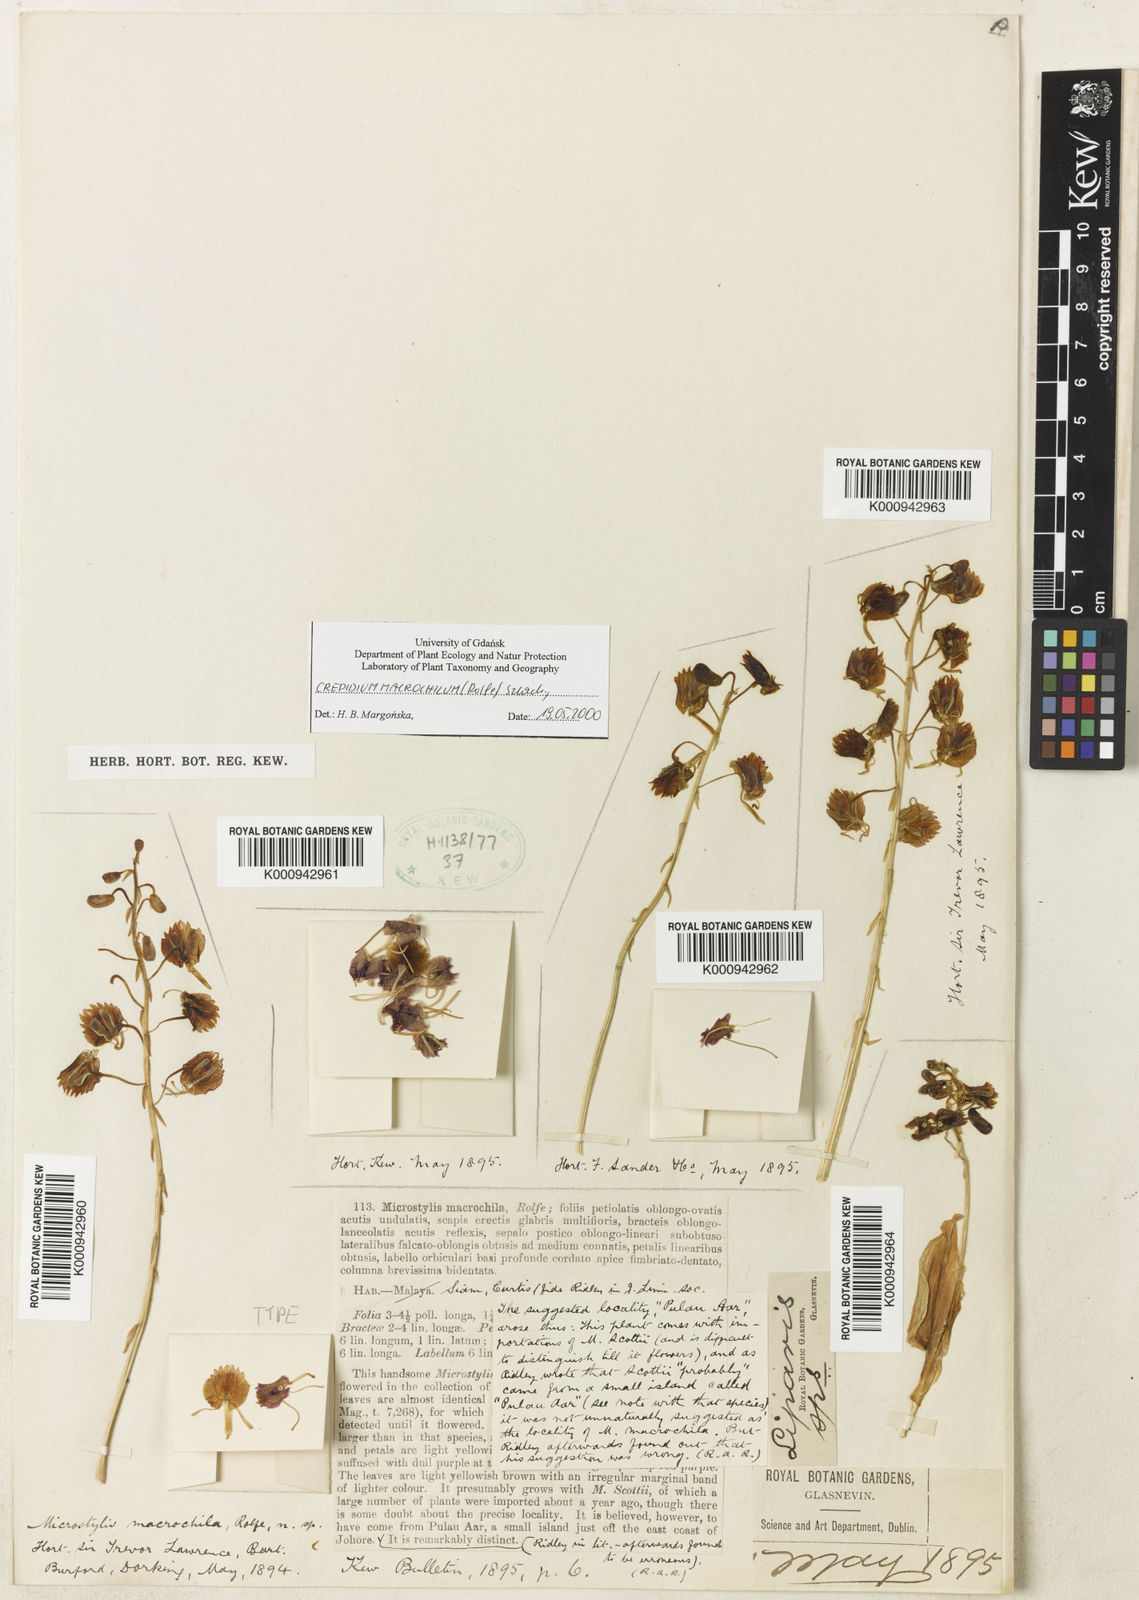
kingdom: Plantae
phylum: Tracheophyta
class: Liliopsida
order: Asparagales
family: Orchidaceae
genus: Crepidium
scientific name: Crepidium macrochilum
